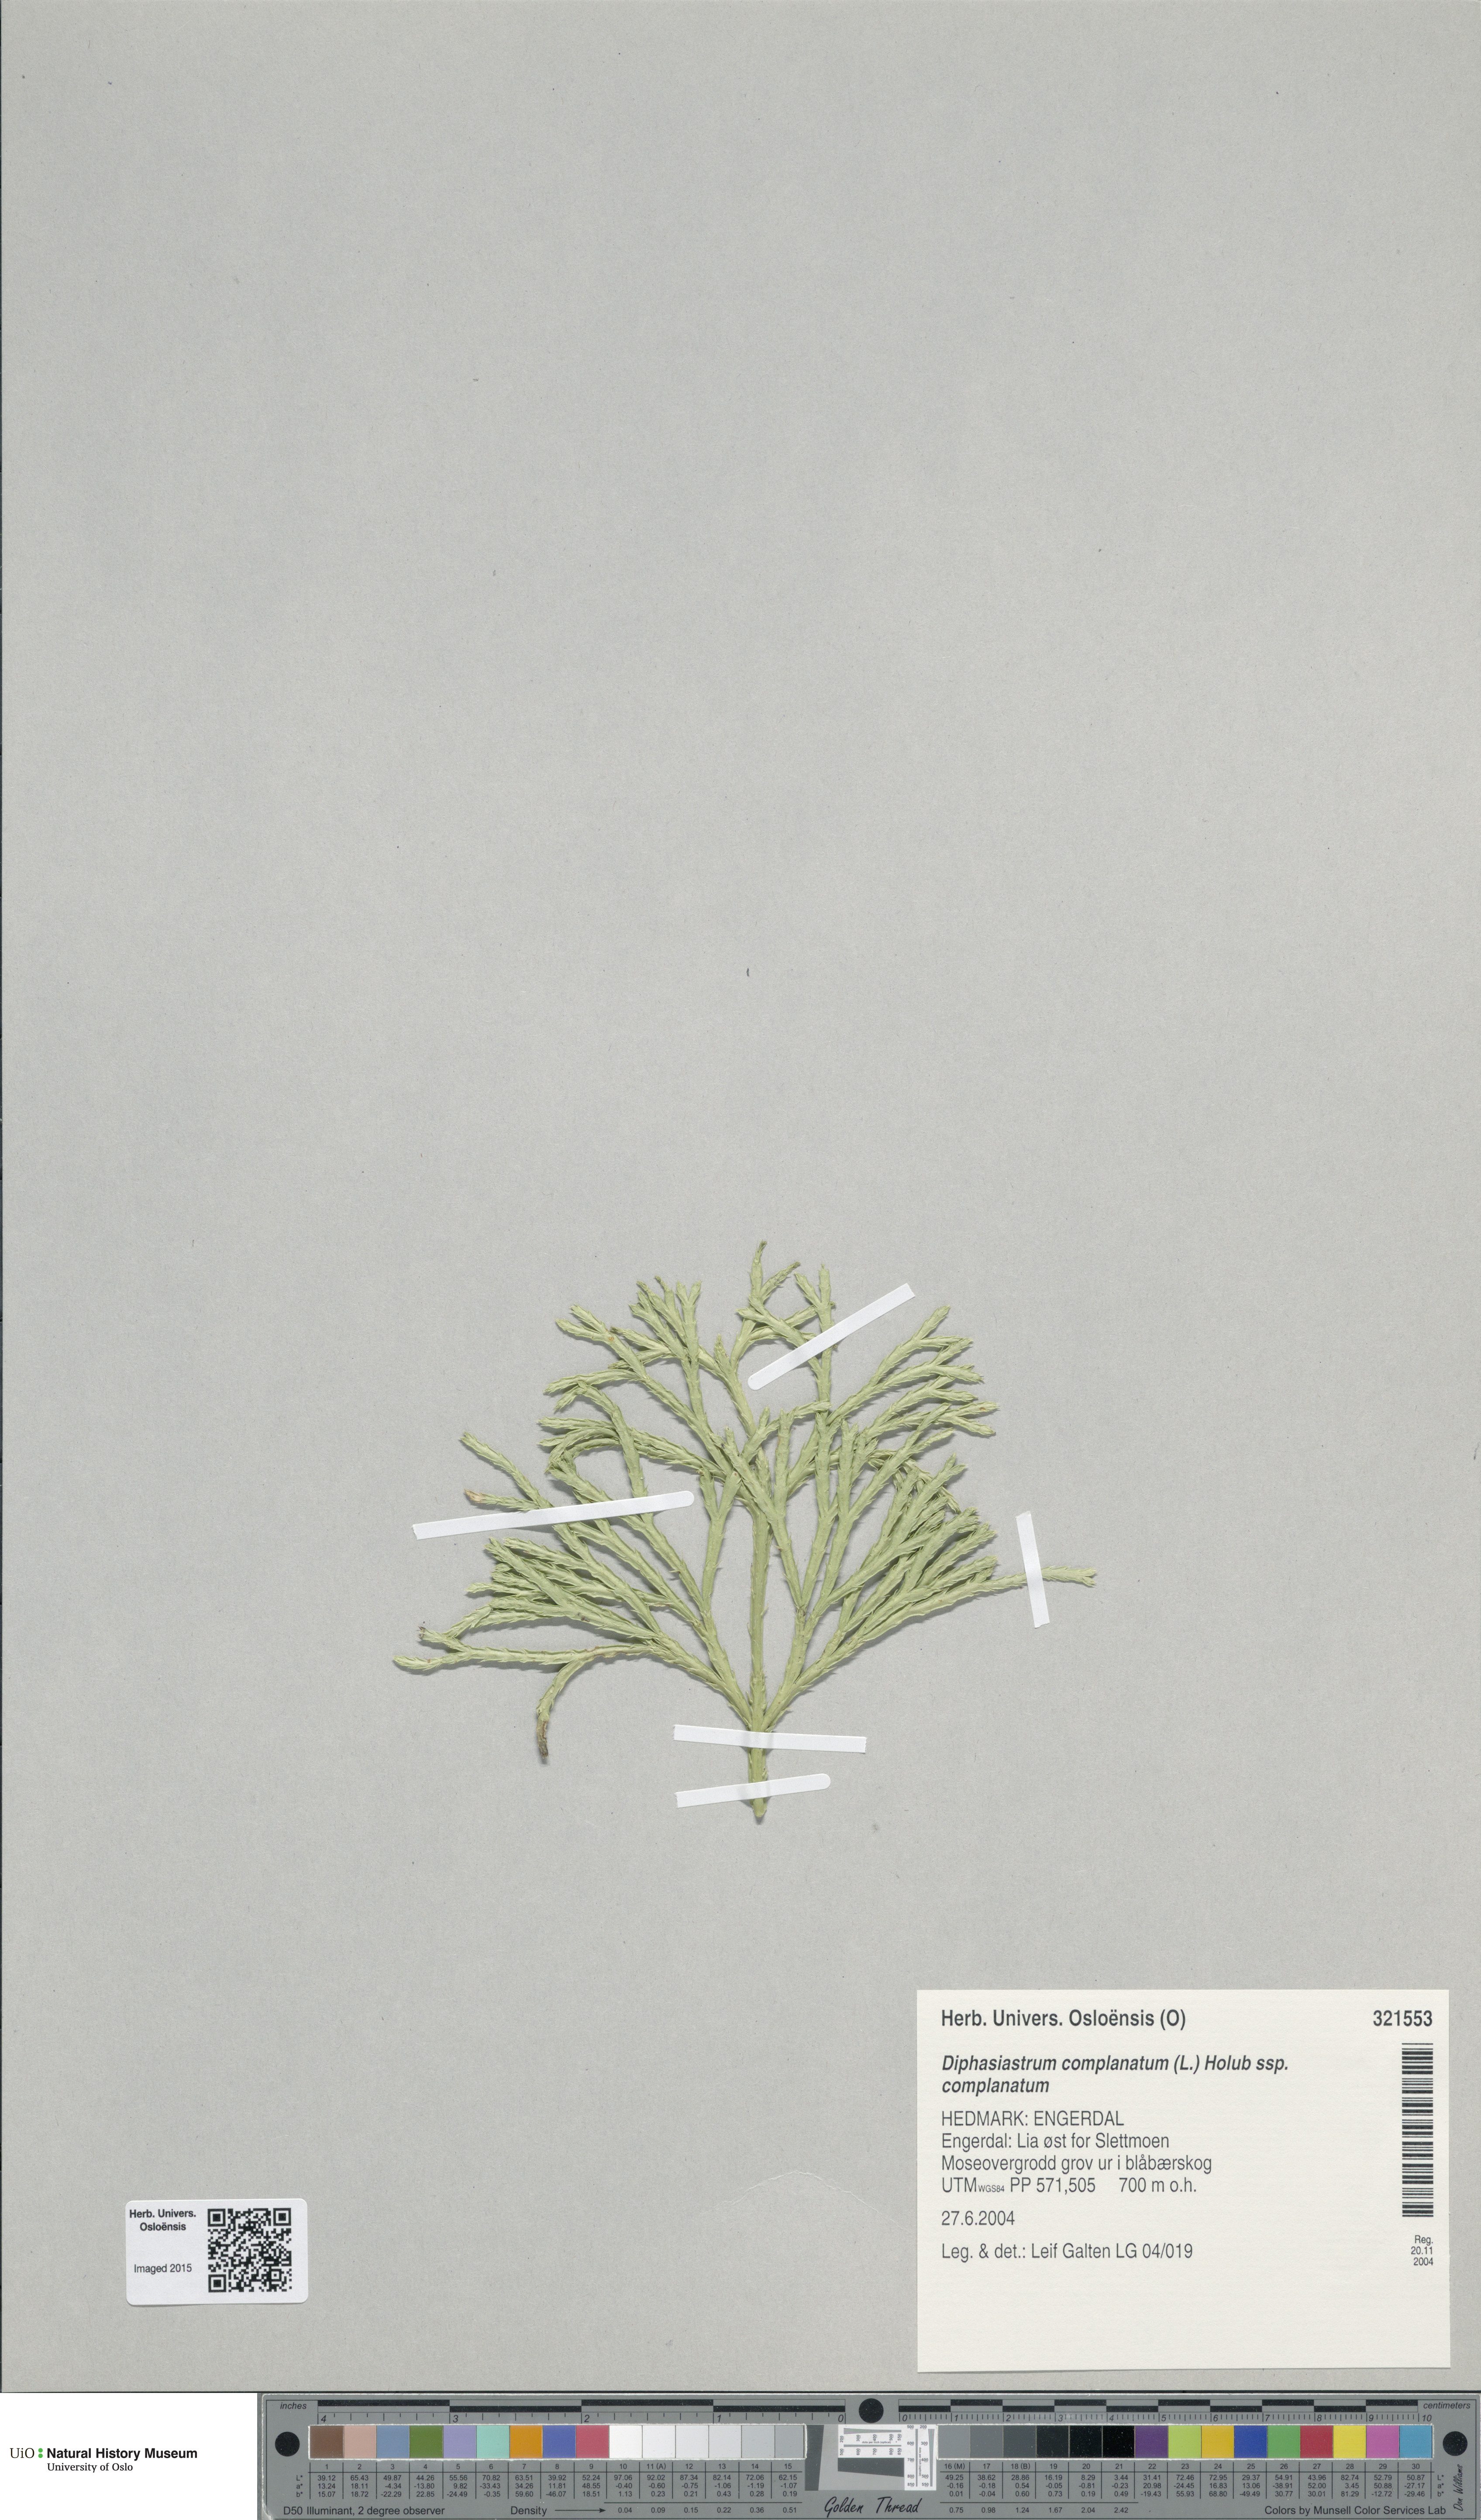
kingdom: Plantae
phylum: Tracheophyta
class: Lycopodiopsida
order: Lycopodiales
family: Lycopodiaceae
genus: Diphasiastrum
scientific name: Diphasiastrum complanatum
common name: Northern running-pine
